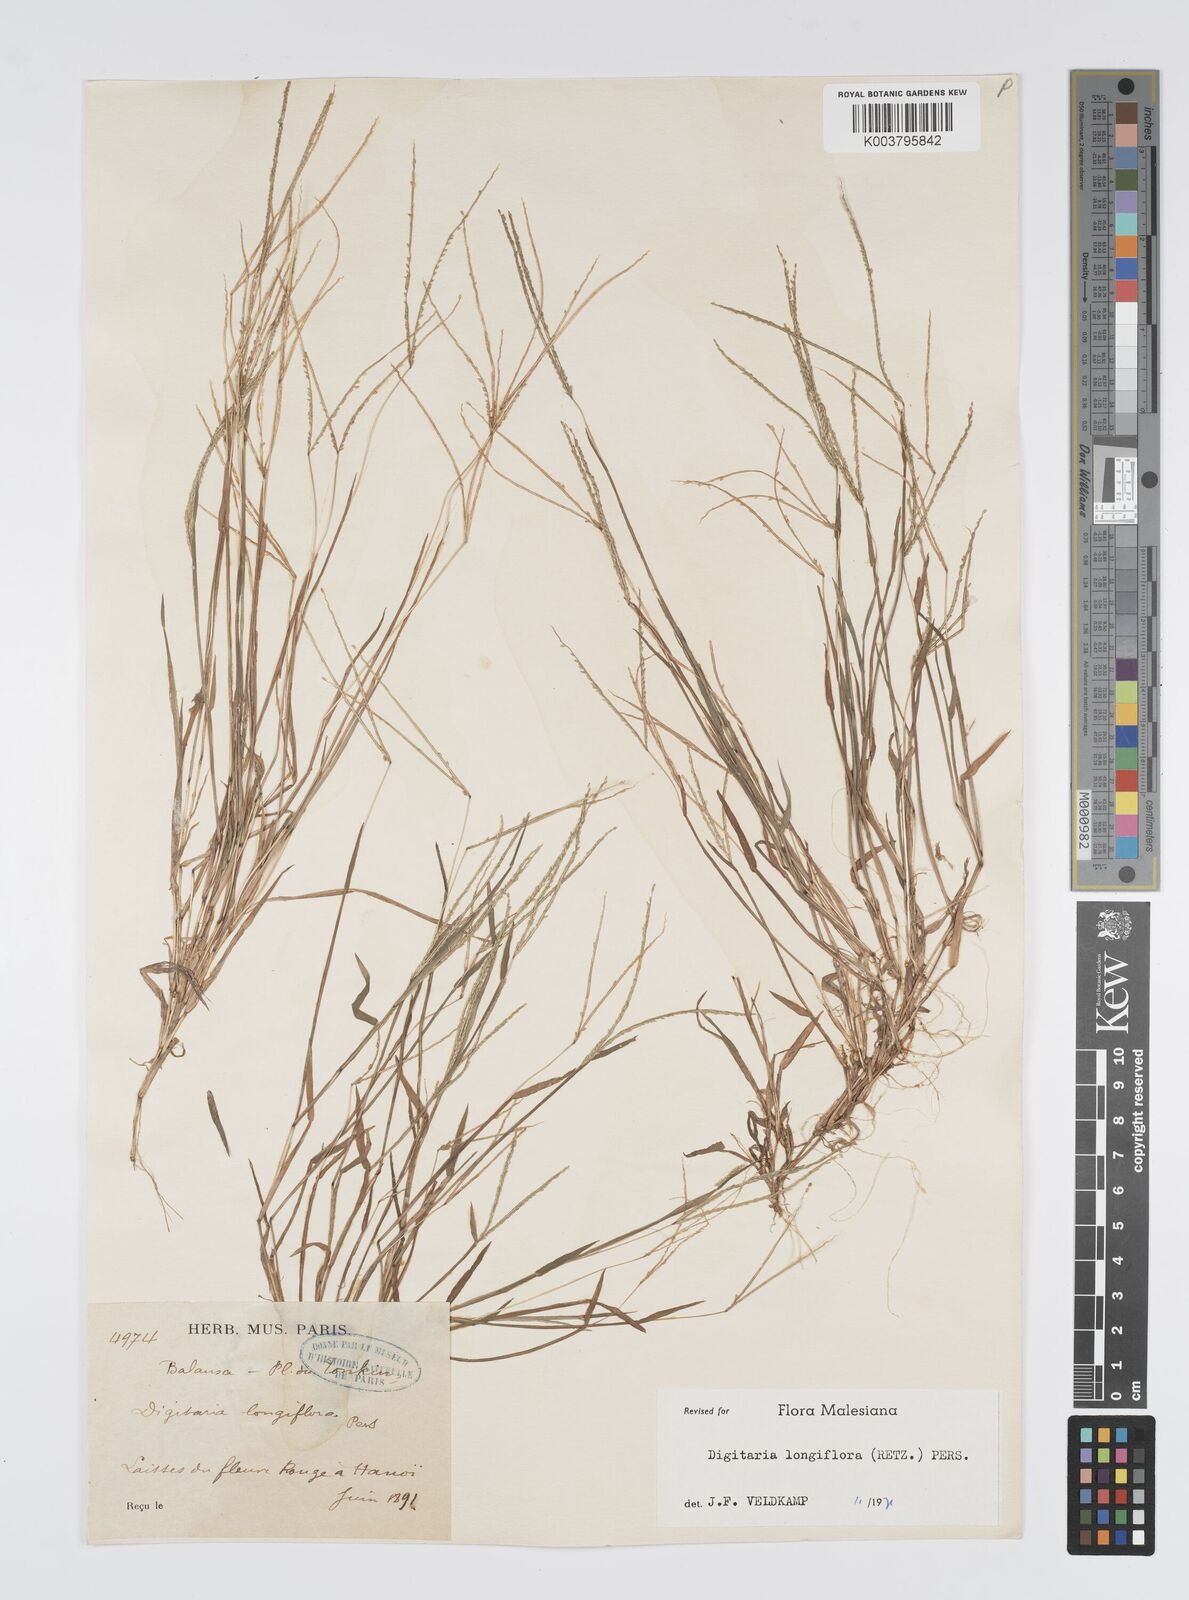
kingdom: Plantae
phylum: Tracheophyta
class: Liliopsida
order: Poales
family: Poaceae
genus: Digitaria
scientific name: Digitaria longiflora
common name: Wire crabgrass
